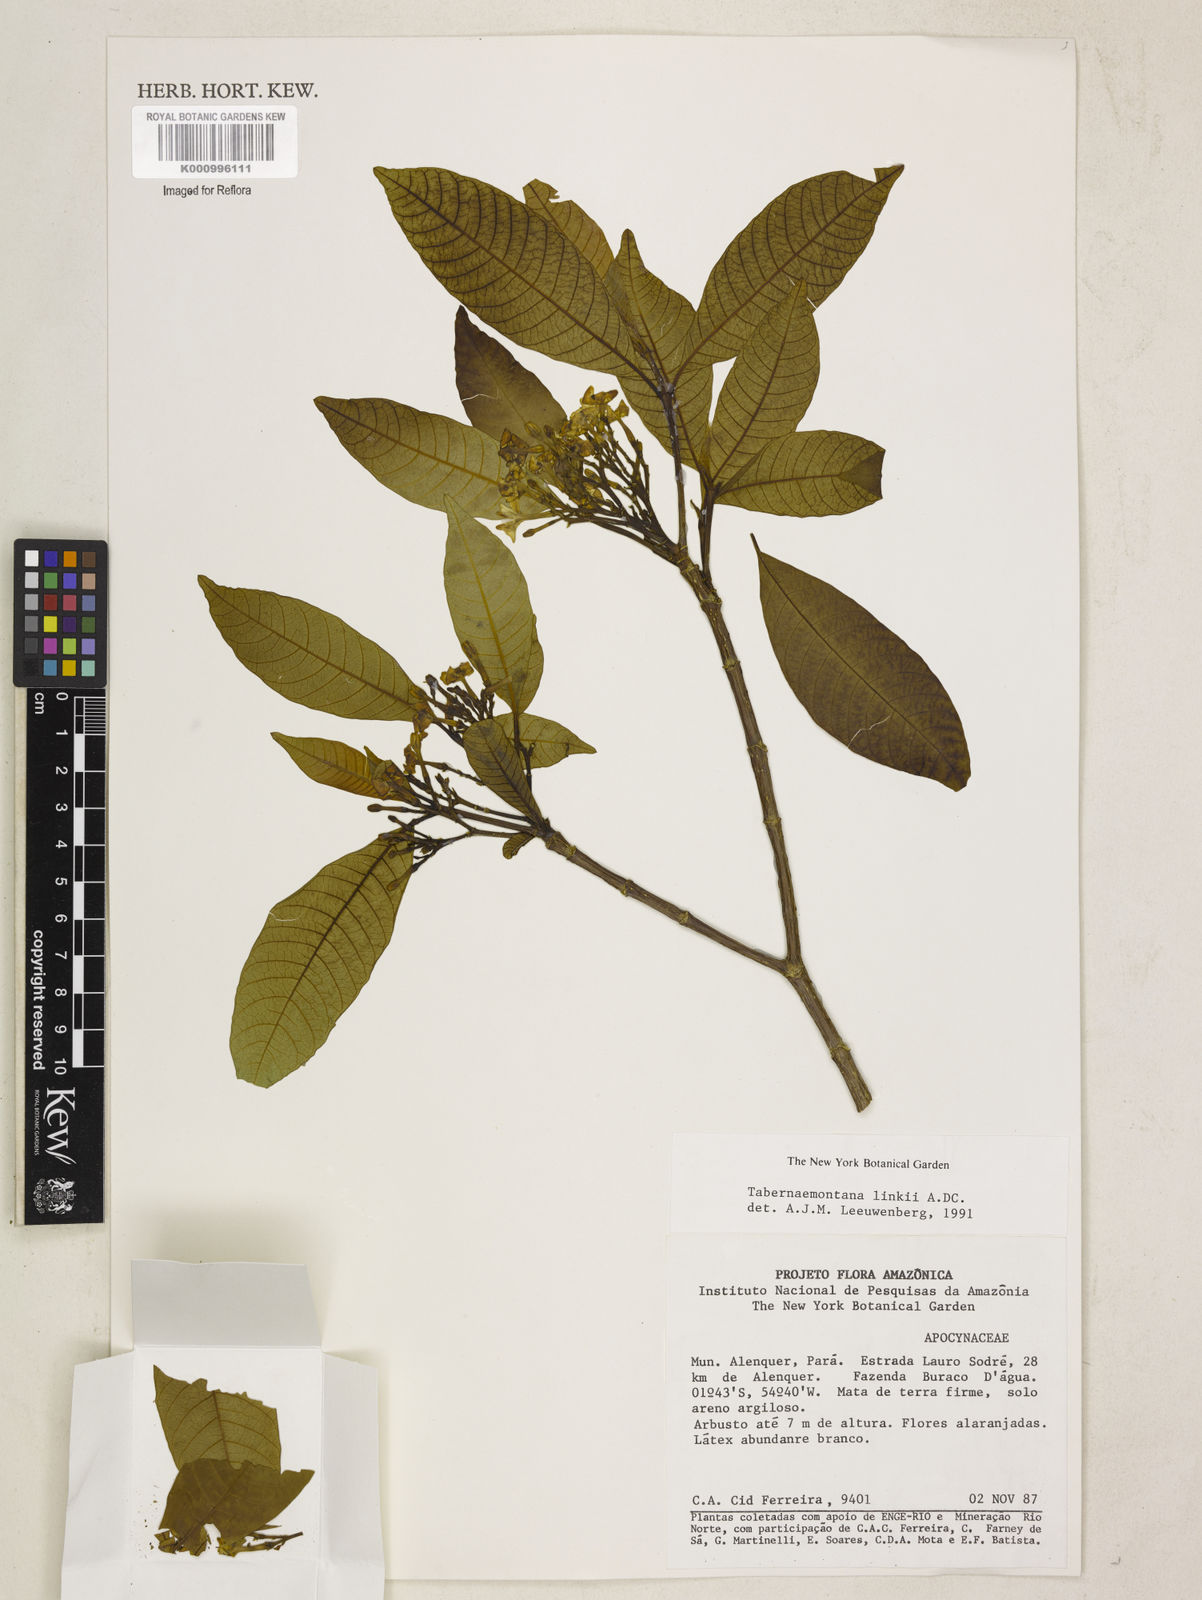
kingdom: Plantae
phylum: Tracheophyta
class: Magnoliopsida
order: Gentianales
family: Apocynaceae
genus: Tabernaemontana
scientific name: Tabernaemontana linkii
